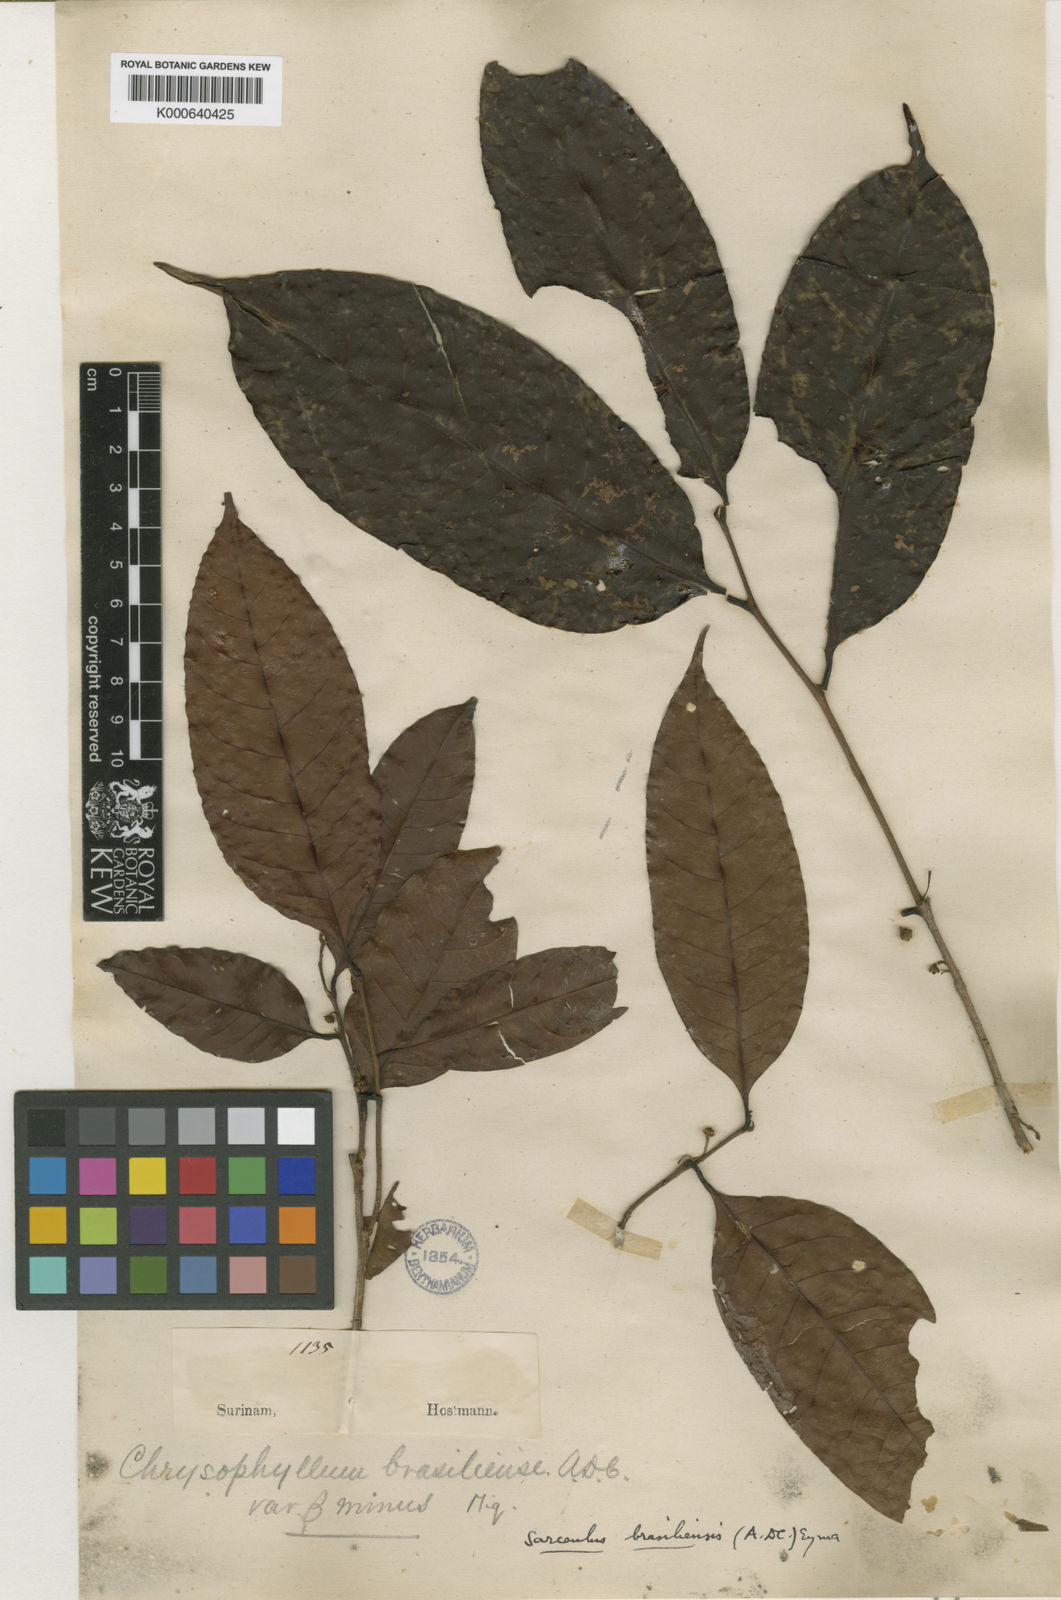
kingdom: Plantae
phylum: Tracheophyta
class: Magnoliopsida
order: Ericales
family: Sapotaceae
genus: Sarcaulus
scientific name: Sarcaulus brasiliensis
